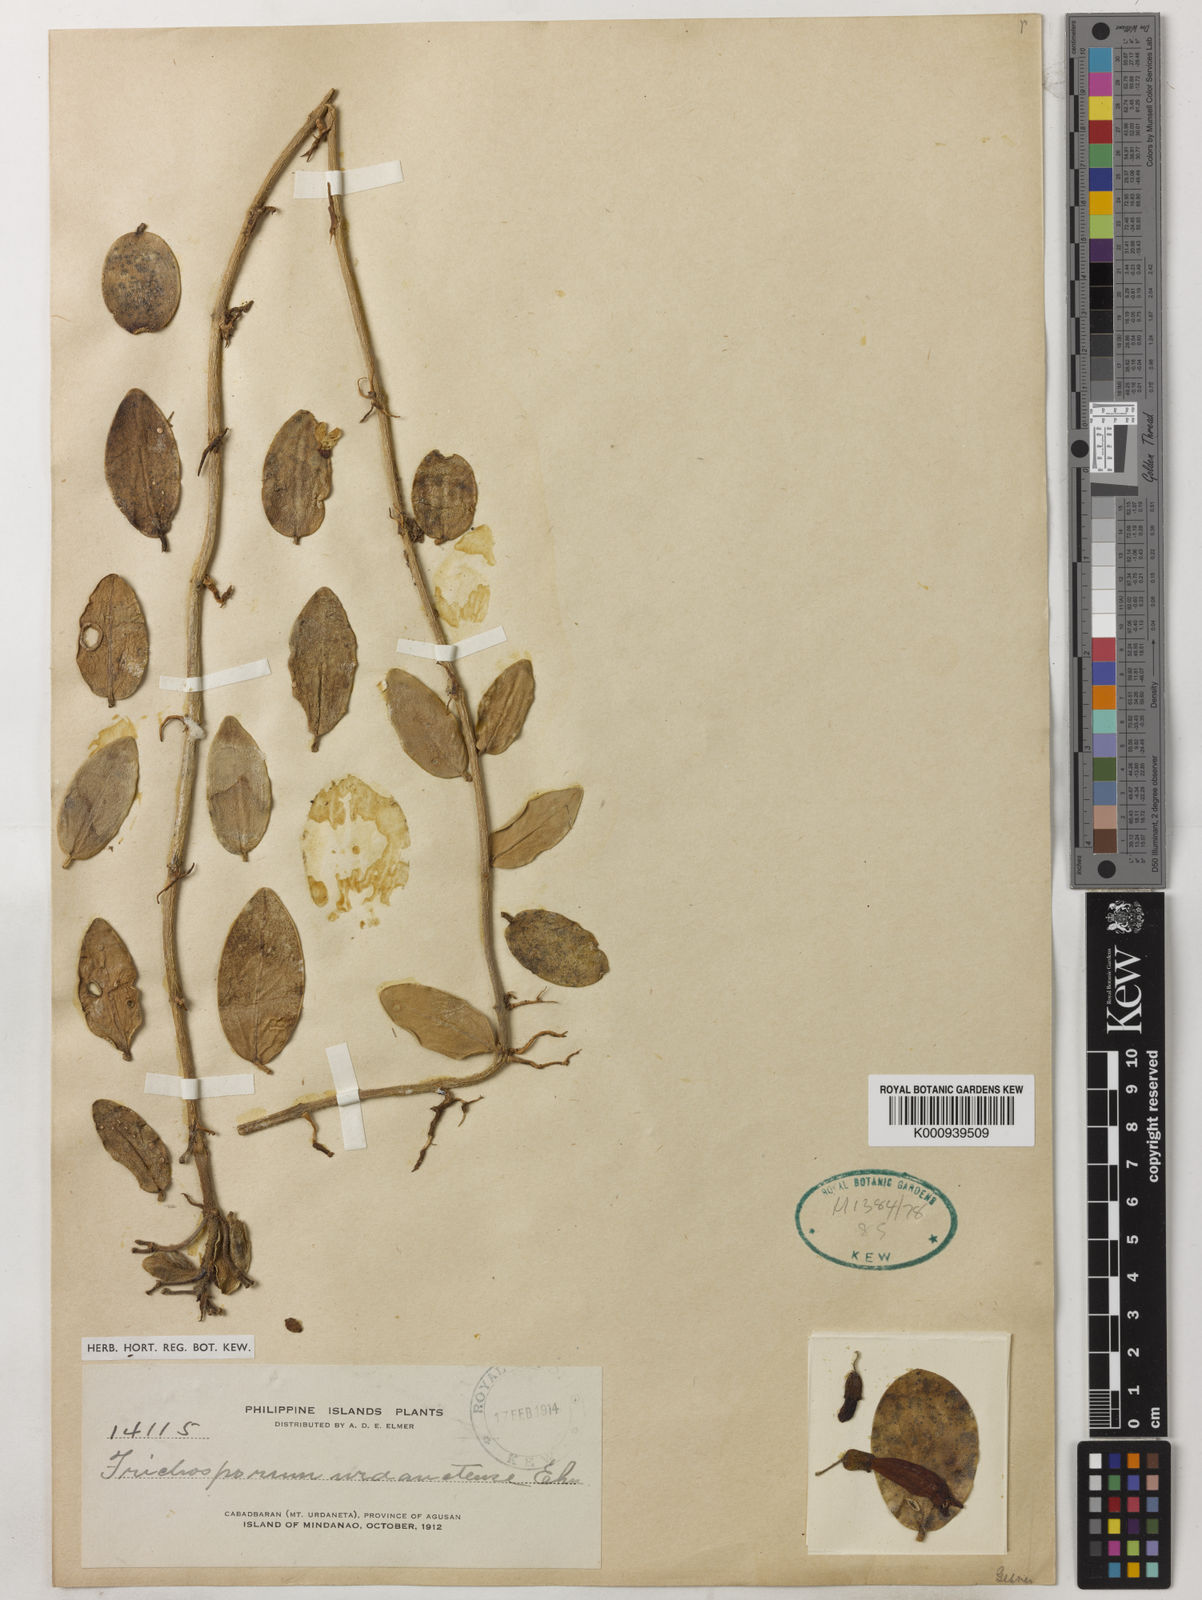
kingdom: Plantae
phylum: Tracheophyta
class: Magnoliopsida
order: Lamiales
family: Gesneriaceae
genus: Aeschynanthus
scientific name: Aeschynanthus
